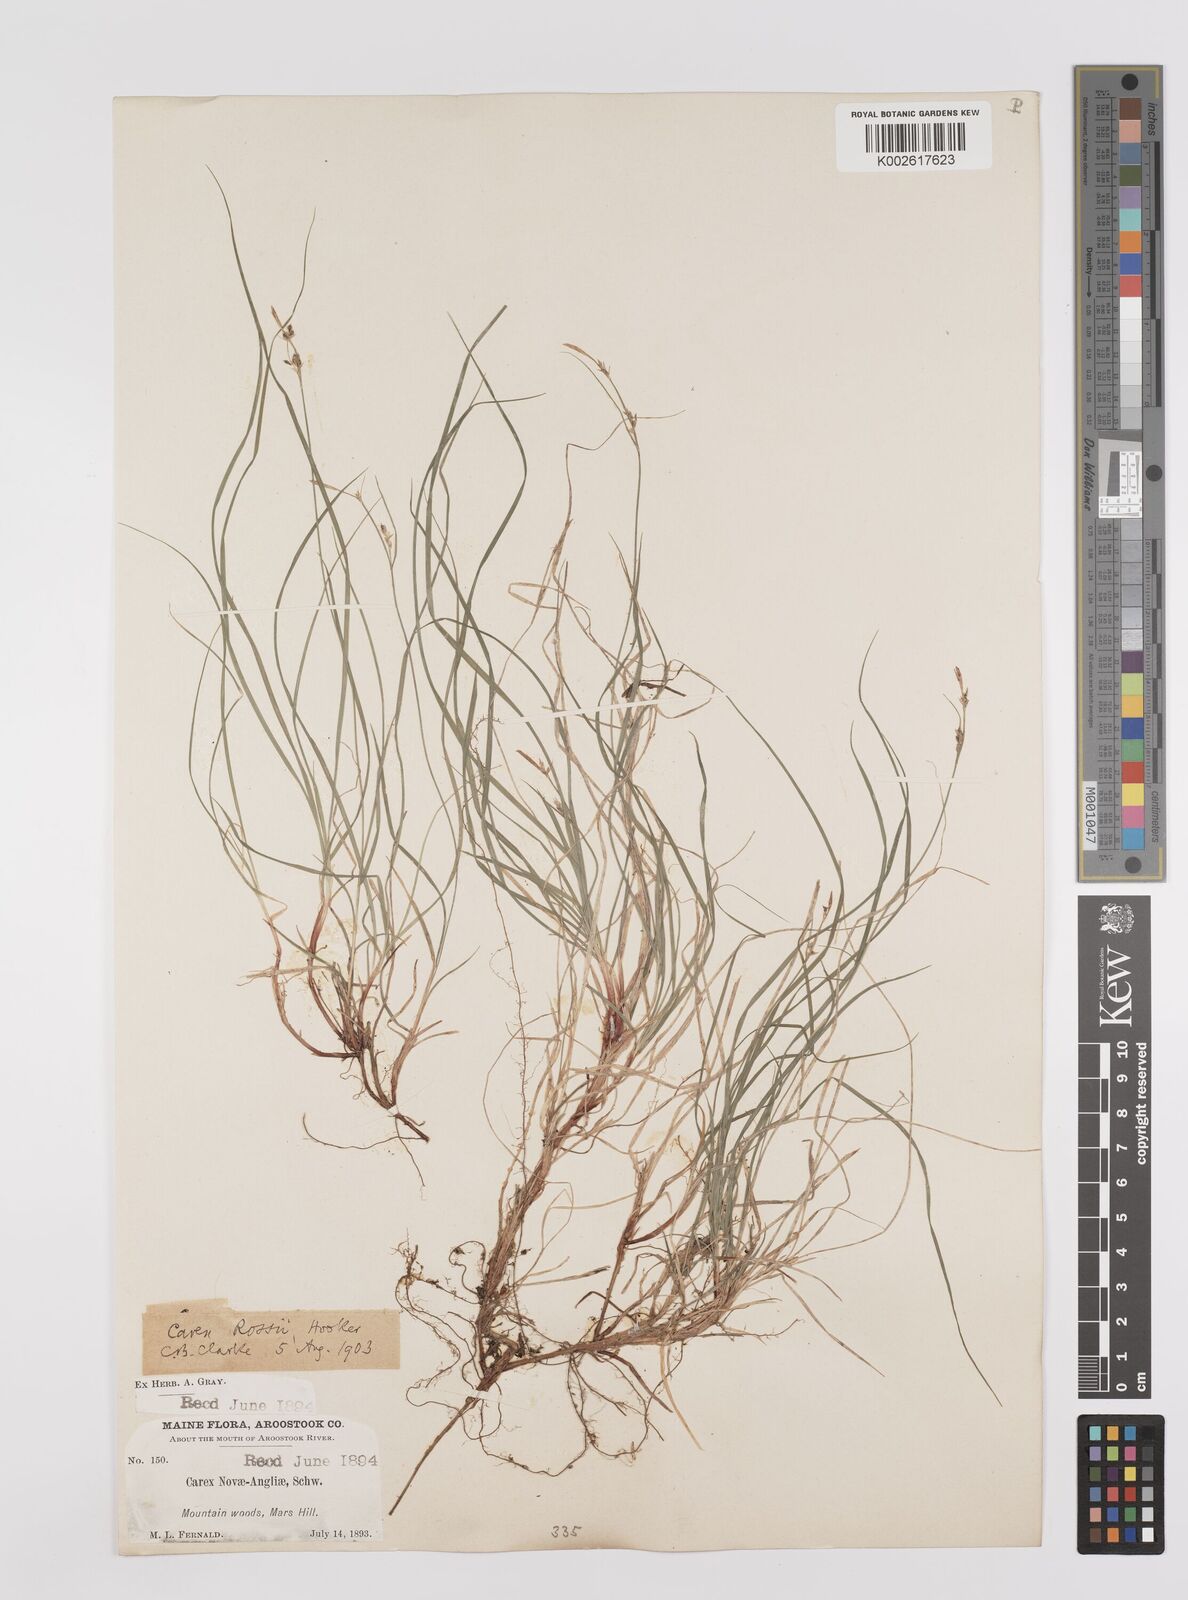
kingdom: Plantae
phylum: Tracheophyta
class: Liliopsida
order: Poales
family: Cyperaceae
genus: Carex
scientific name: Carex rossii
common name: Ross' sedge
